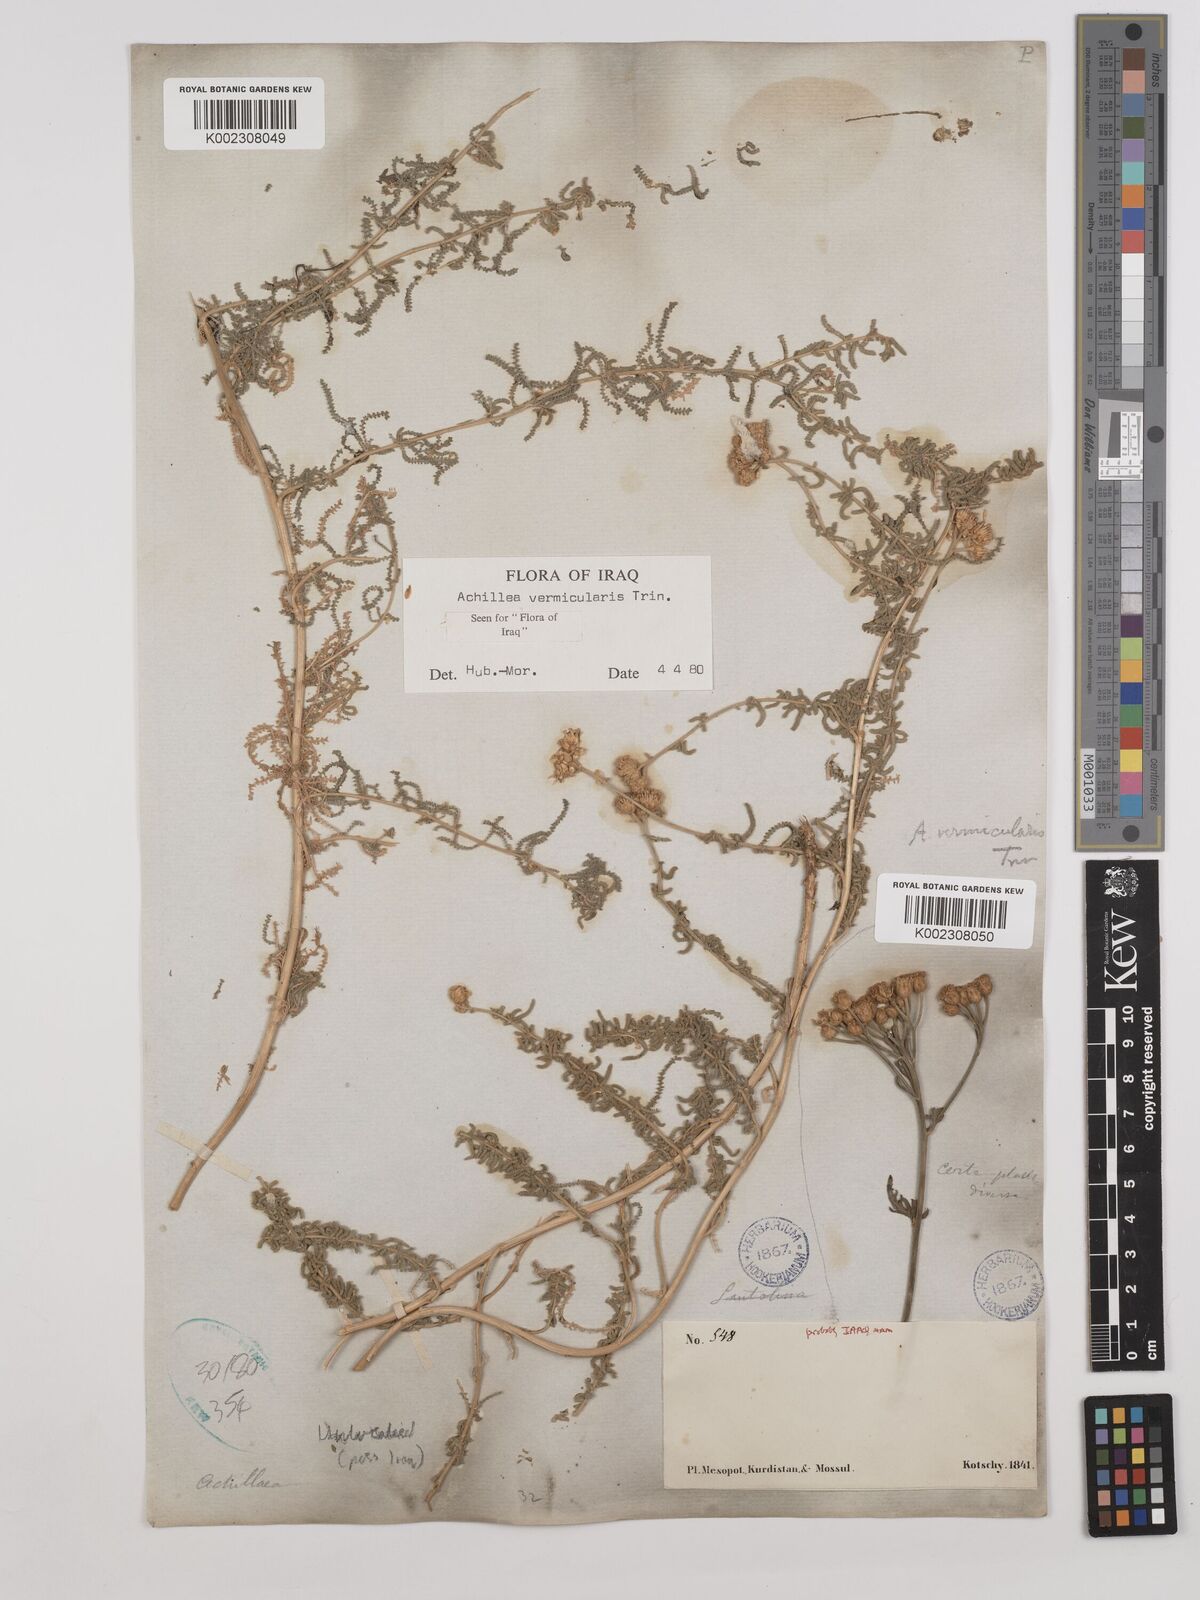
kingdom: Plantae
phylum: Tracheophyta
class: Magnoliopsida
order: Asterales
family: Asteraceae
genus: Achillea
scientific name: Achillea vermicularis
